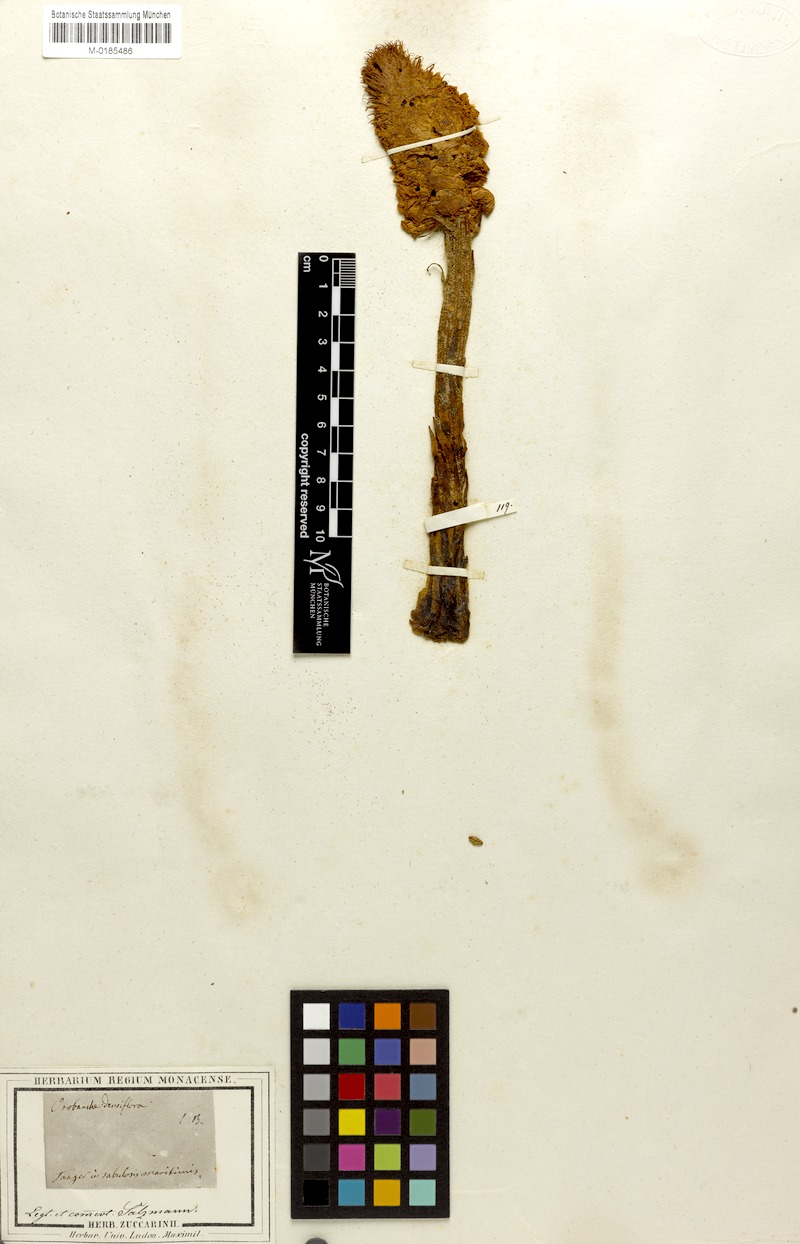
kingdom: Plantae
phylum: Tracheophyta
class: Magnoliopsida
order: Lamiales
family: Orobanchaceae
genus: Orobanche
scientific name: Orobanche densiflora
